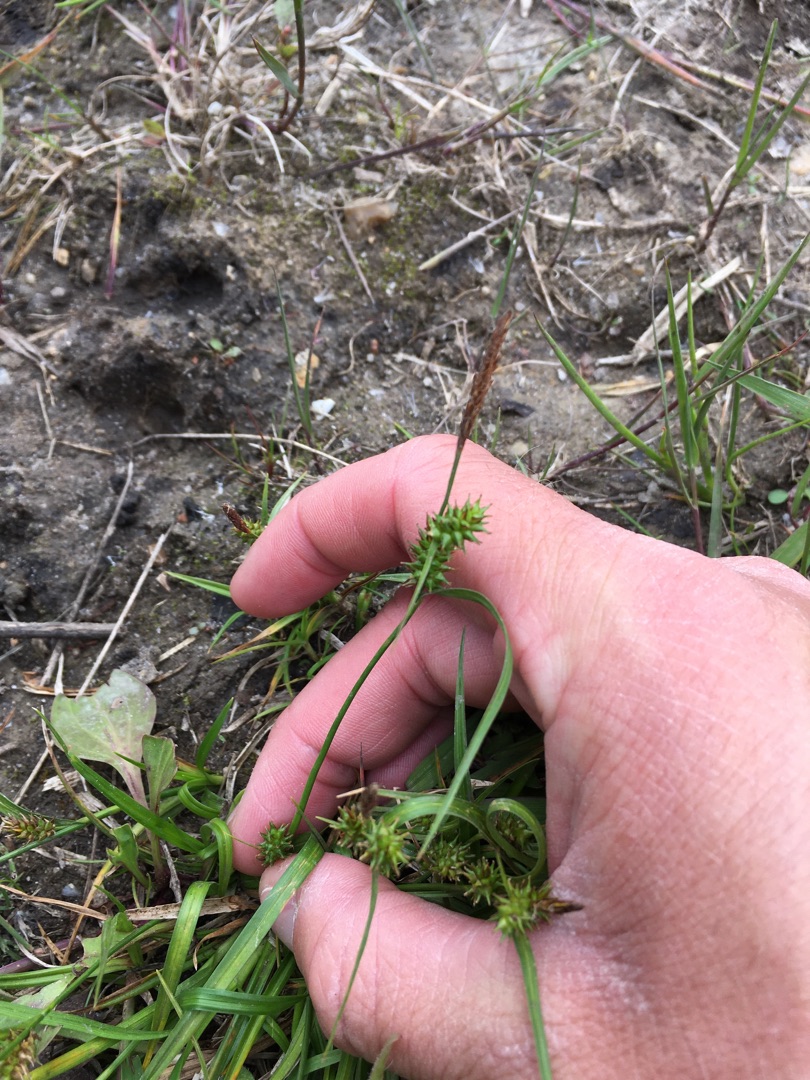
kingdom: Plantae
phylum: Tracheophyta
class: Liliopsida
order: Poales
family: Cyperaceae
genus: Carex
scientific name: Carex demissa
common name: Grøn star
